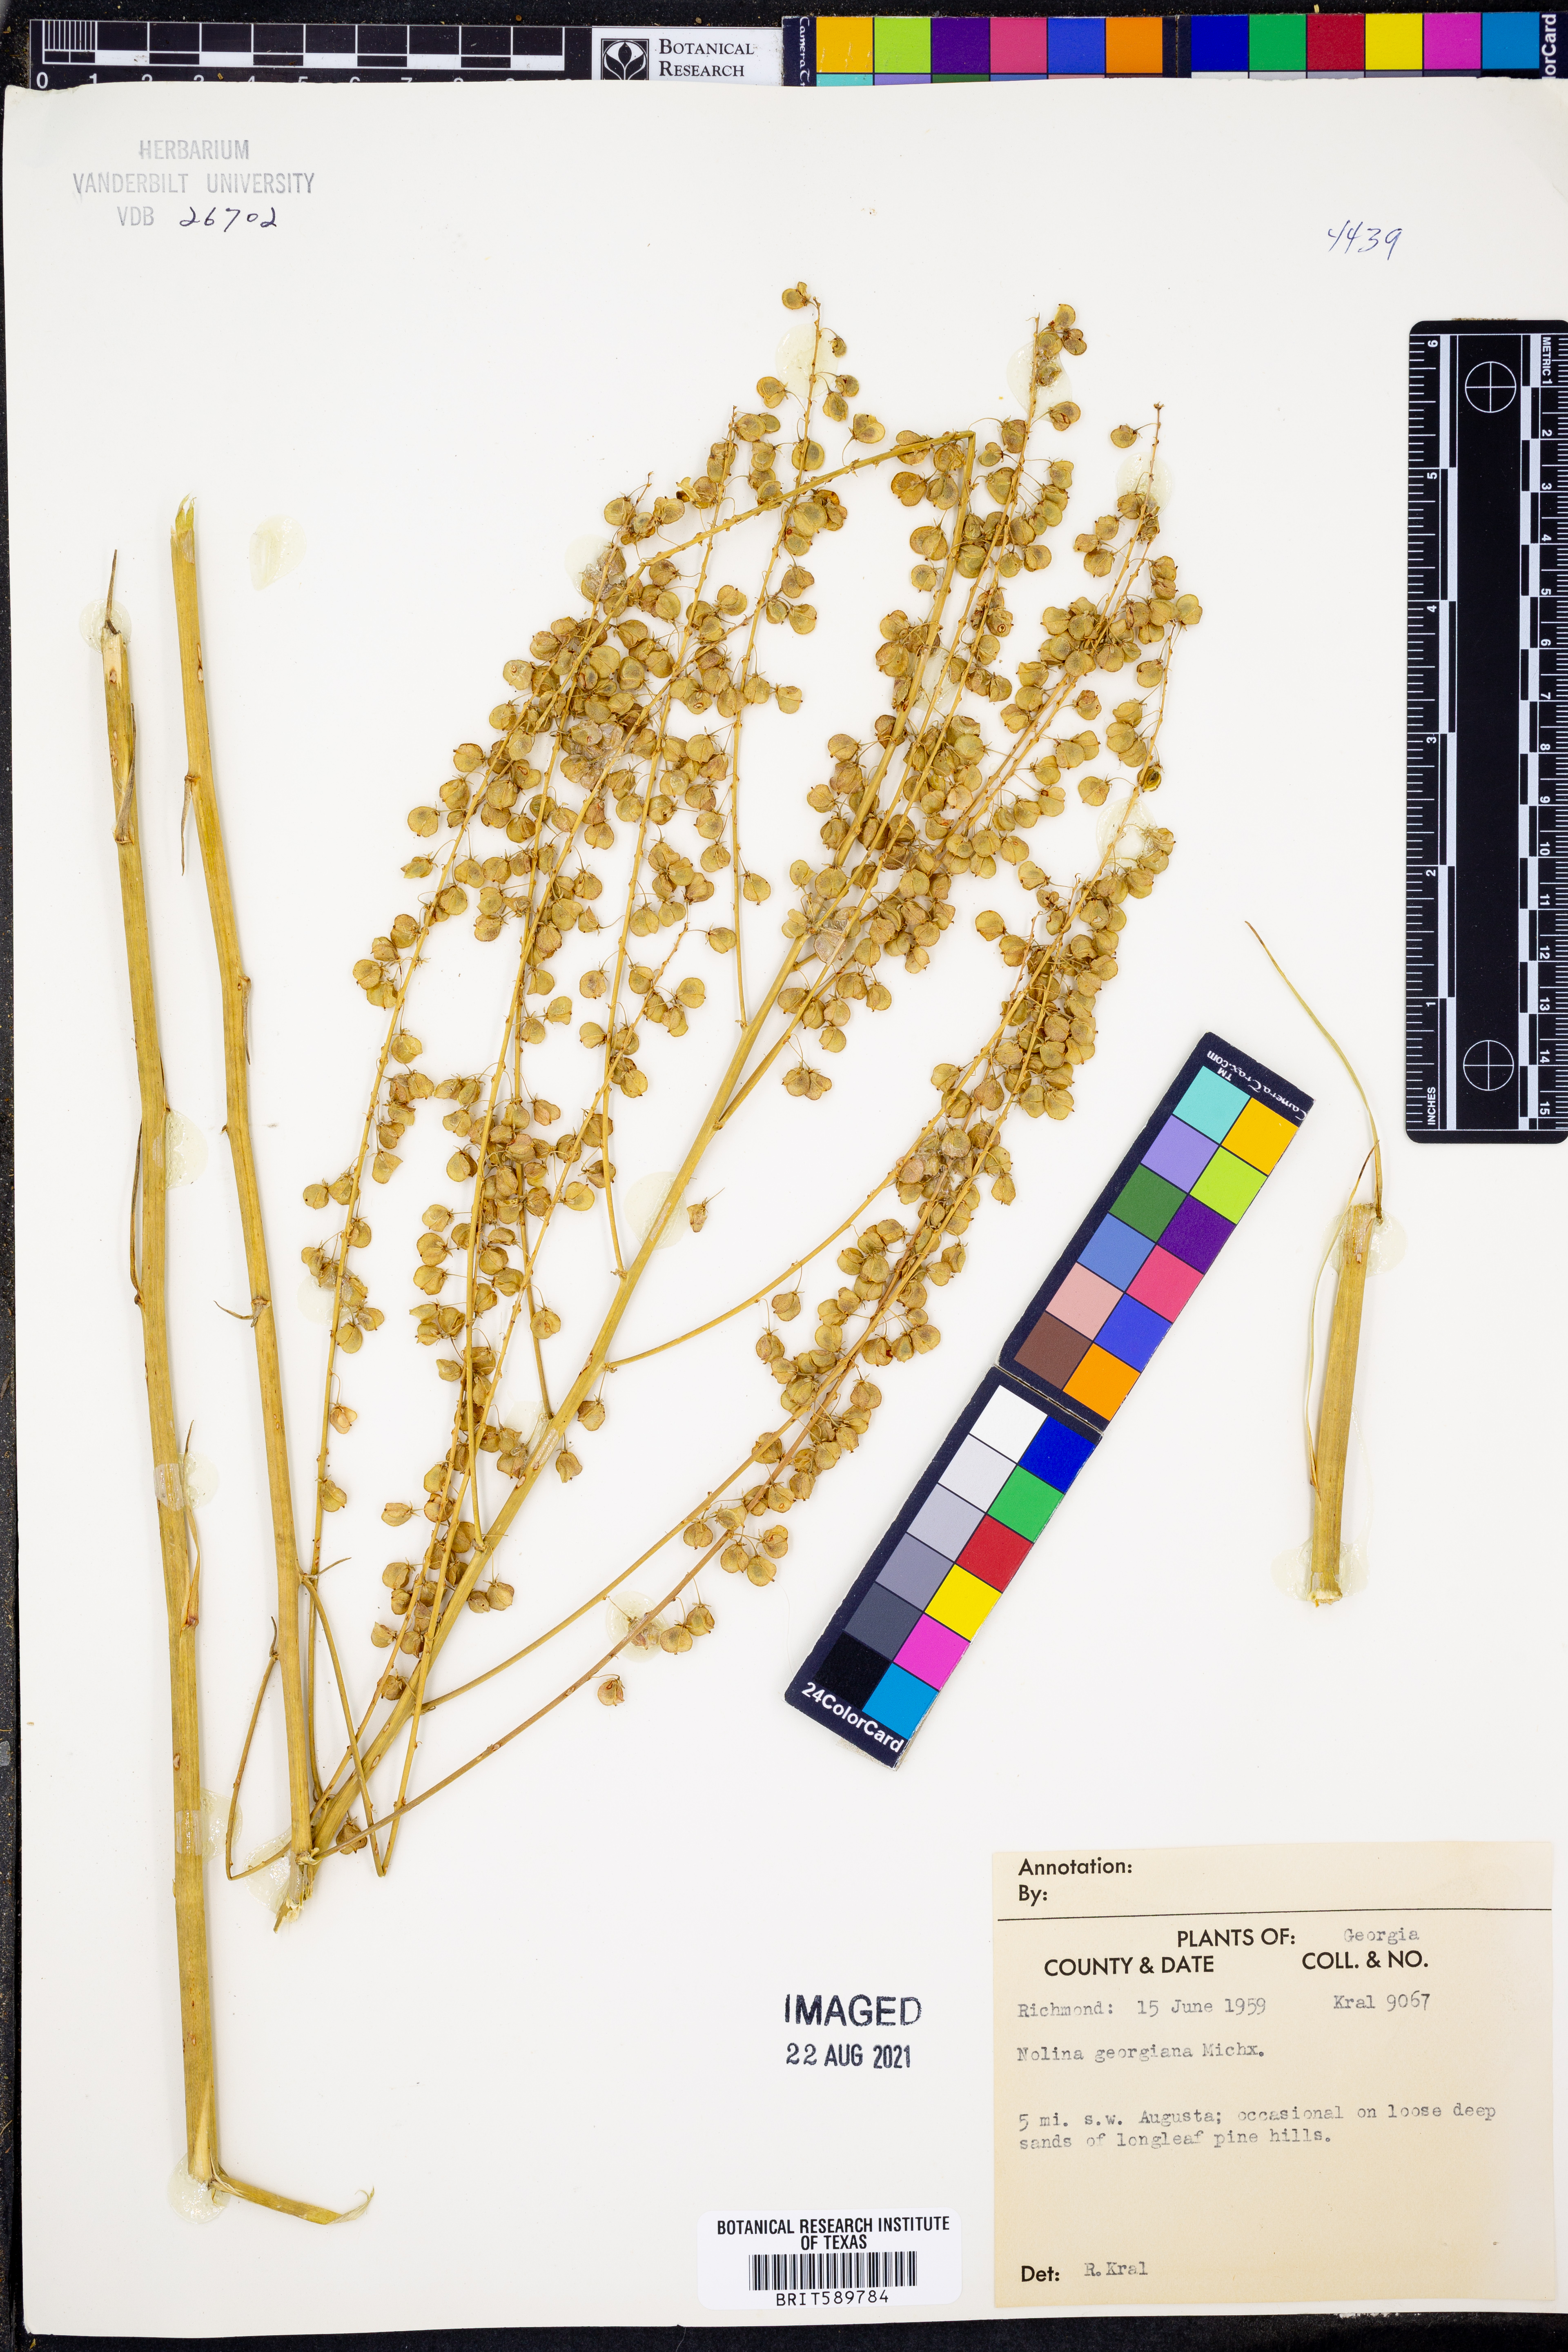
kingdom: Plantae
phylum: Tracheophyta
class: Liliopsida
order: Asparagales
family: Asparagaceae
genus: Nolina
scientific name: Nolina georgiana
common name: Georgia bear-grass
